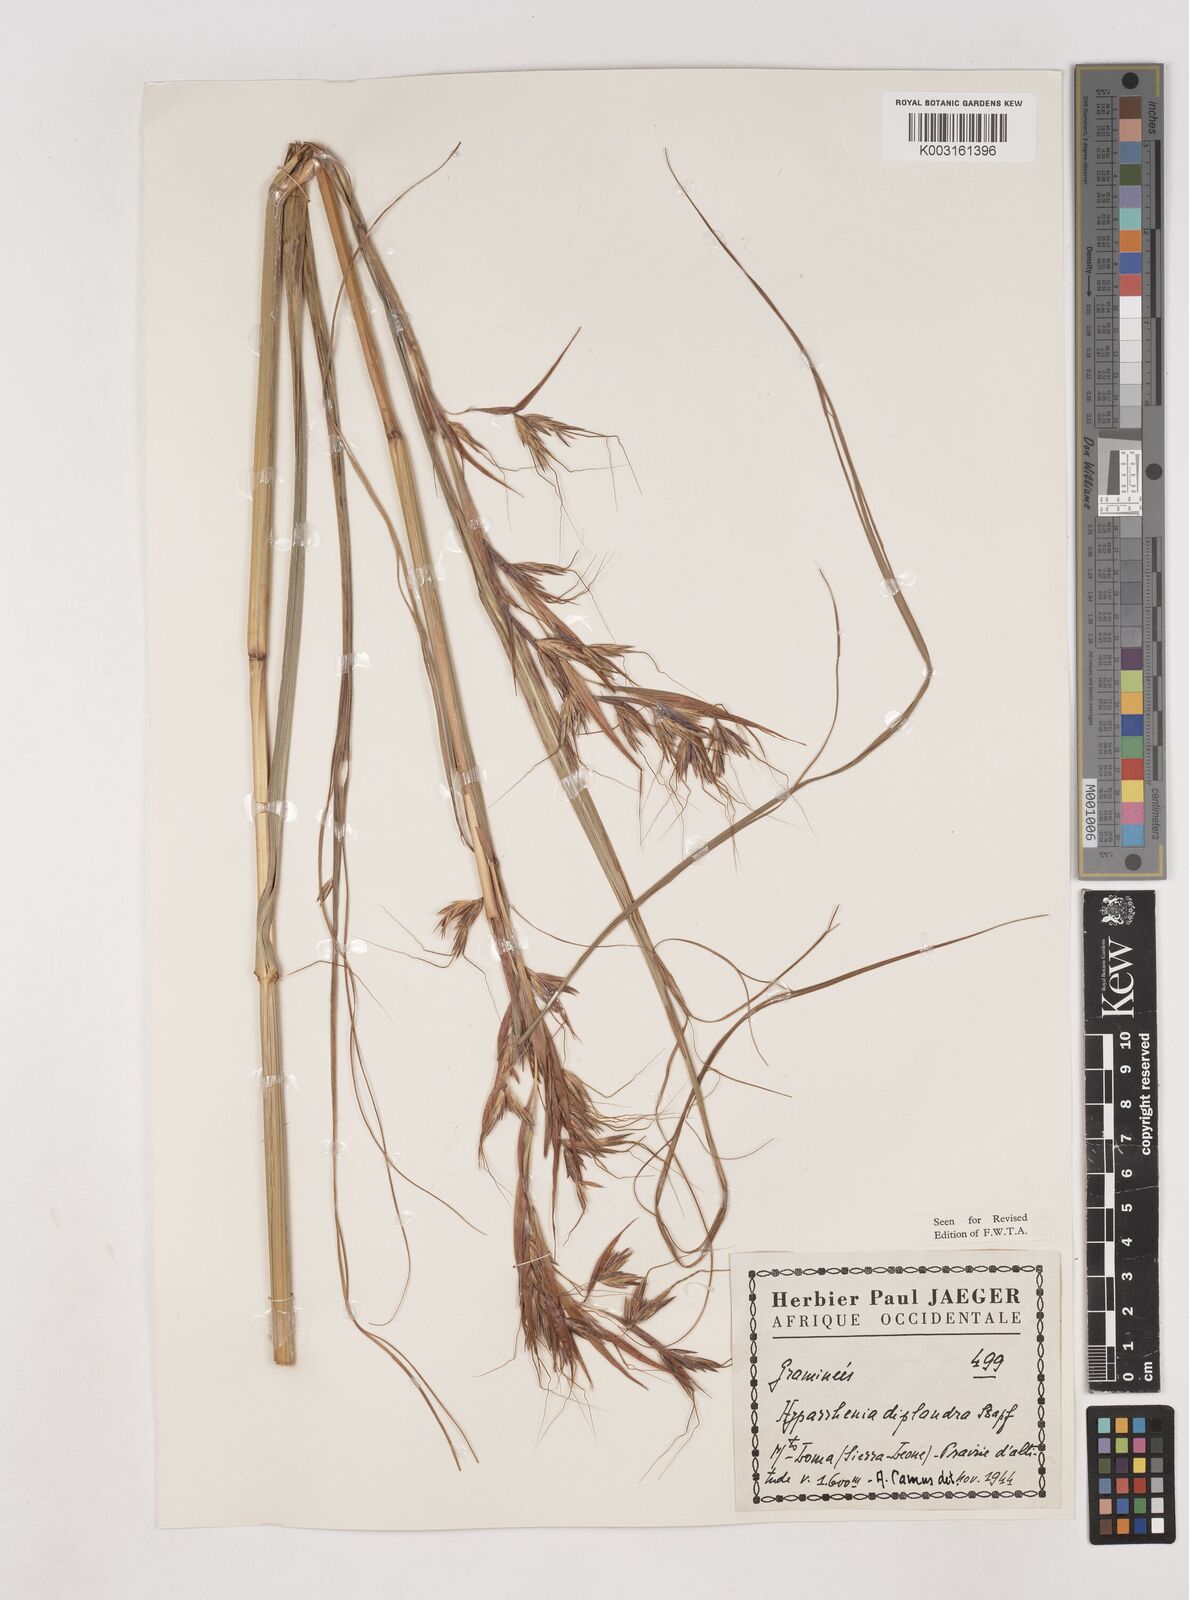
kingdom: Plantae
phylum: Tracheophyta
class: Liliopsida
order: Poales
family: Poaceae
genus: Hyparrhenia
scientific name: Hyparrhenia diplandra
